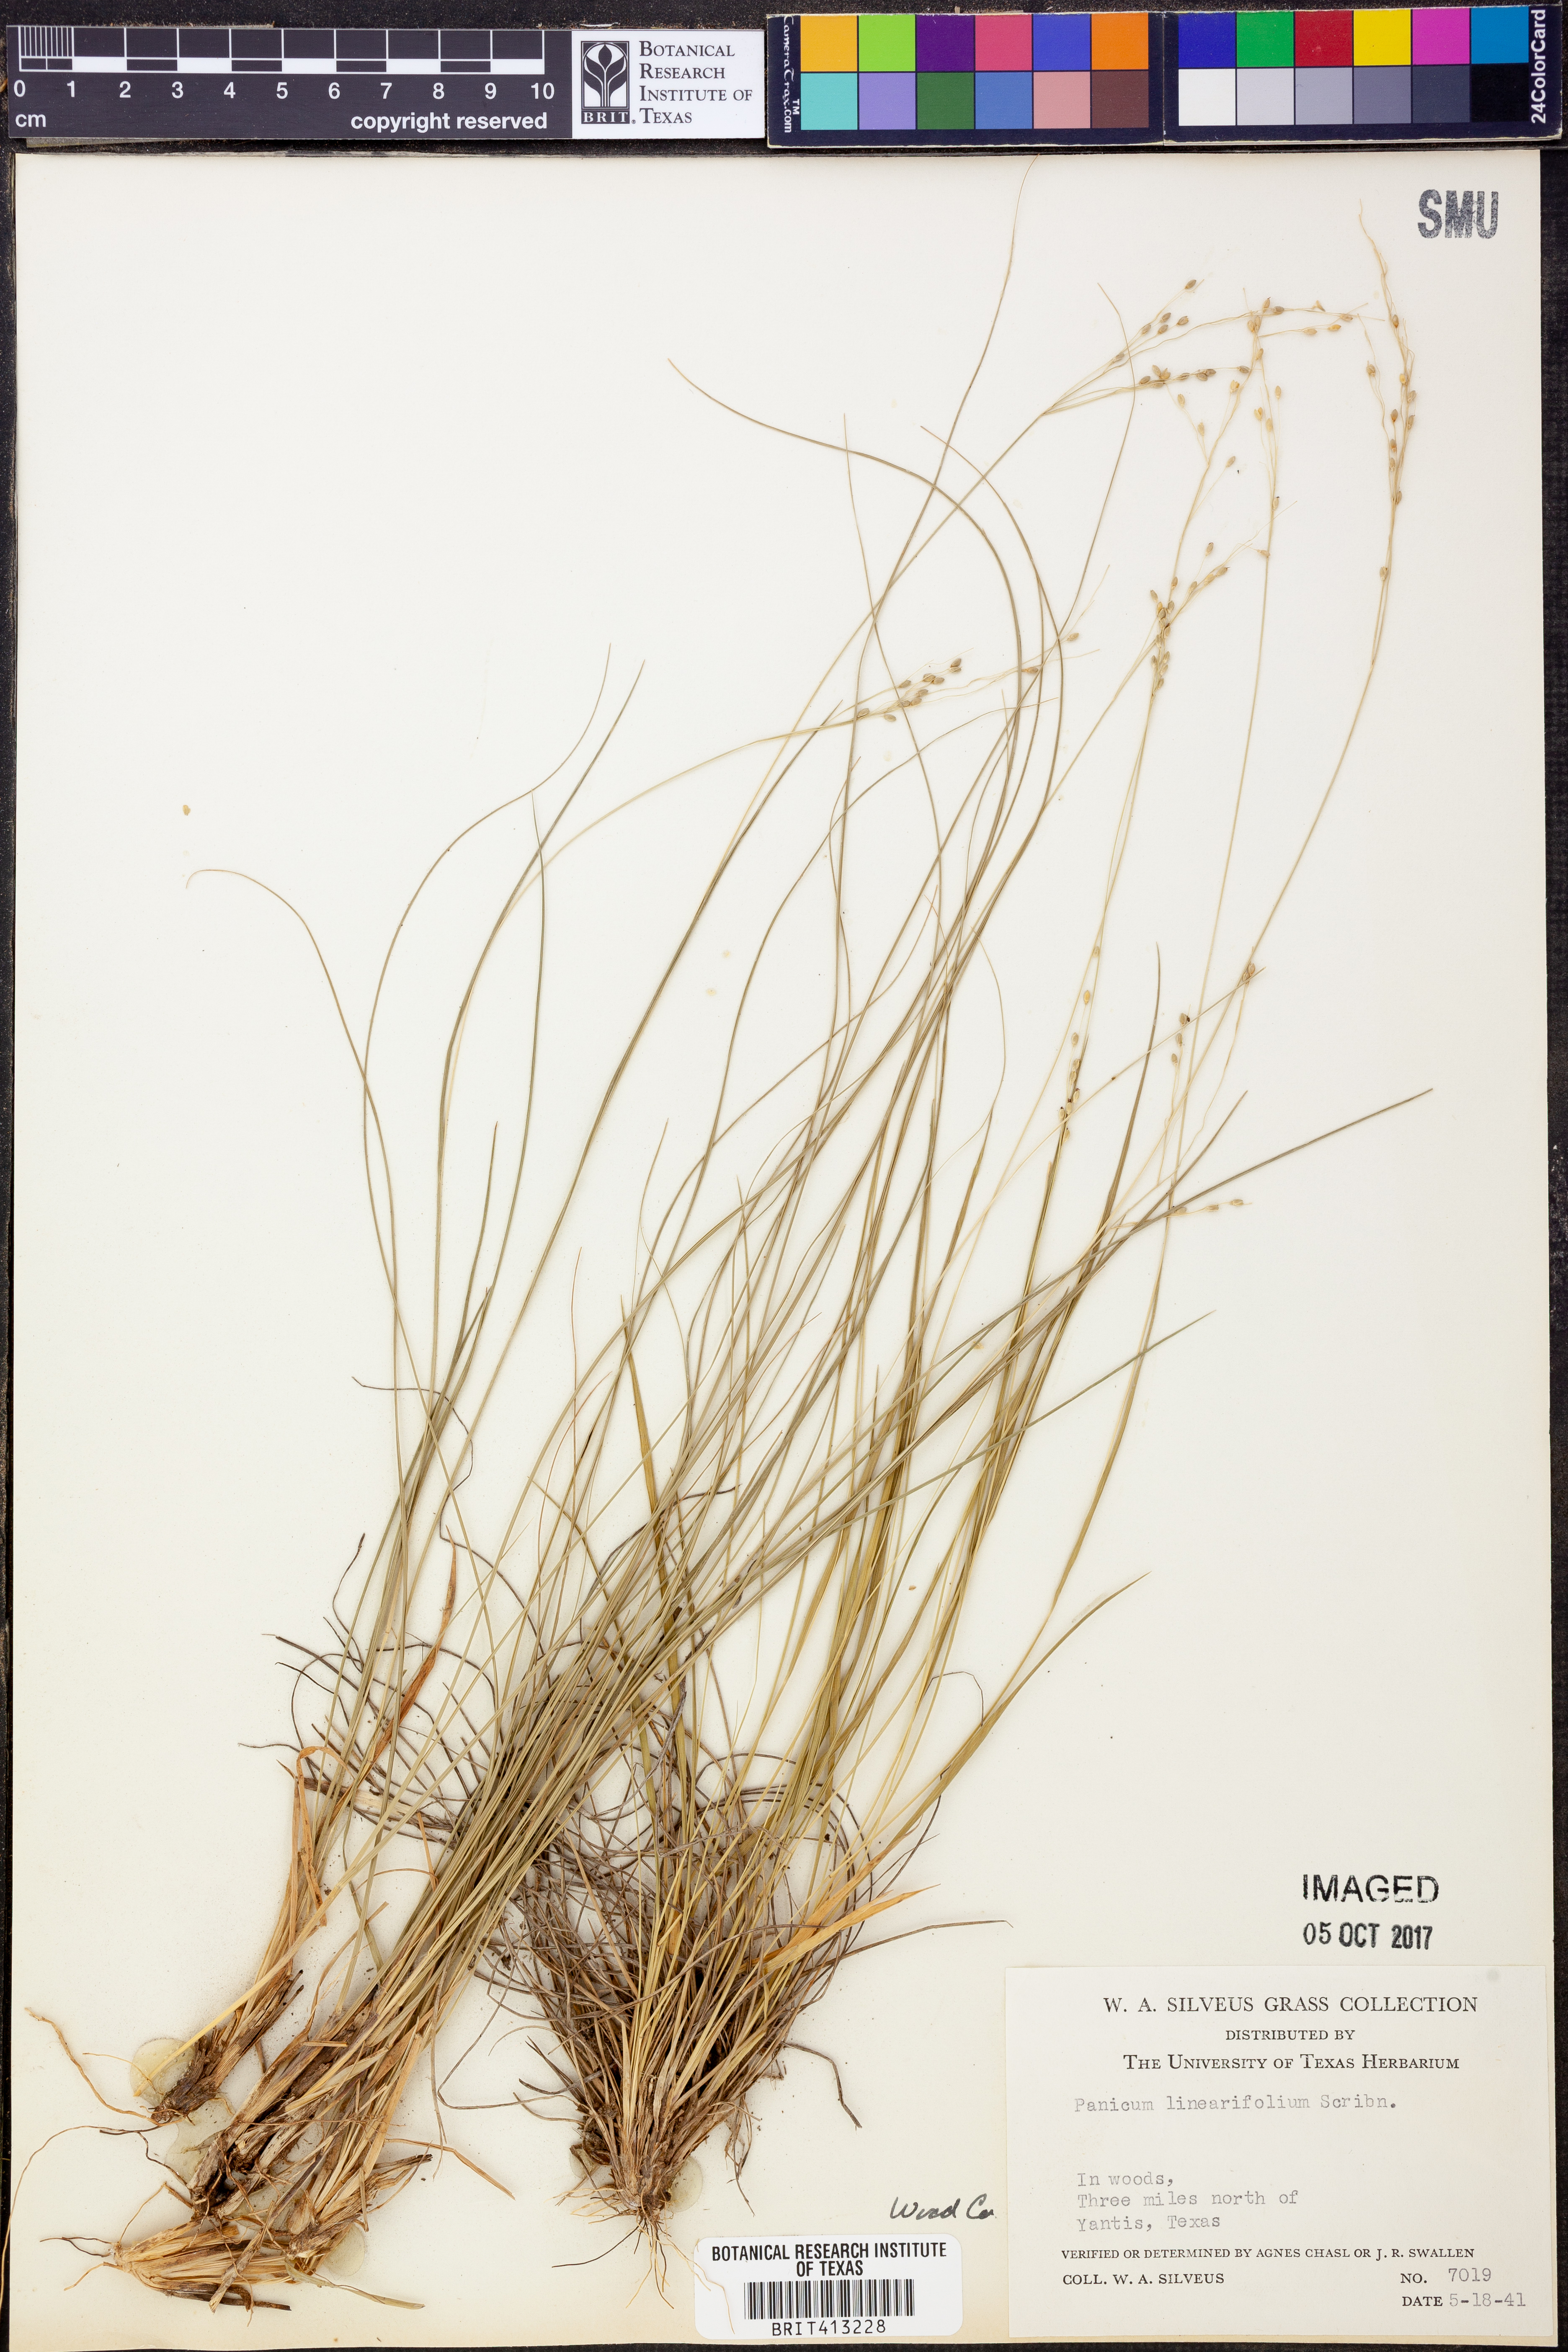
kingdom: Plantae
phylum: Tracheophyta
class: Liliopsida
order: Poales
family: Poaceae
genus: Dichanthelium
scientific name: Dichanthelium linearifolium
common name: Linear-leaved panicgrass
